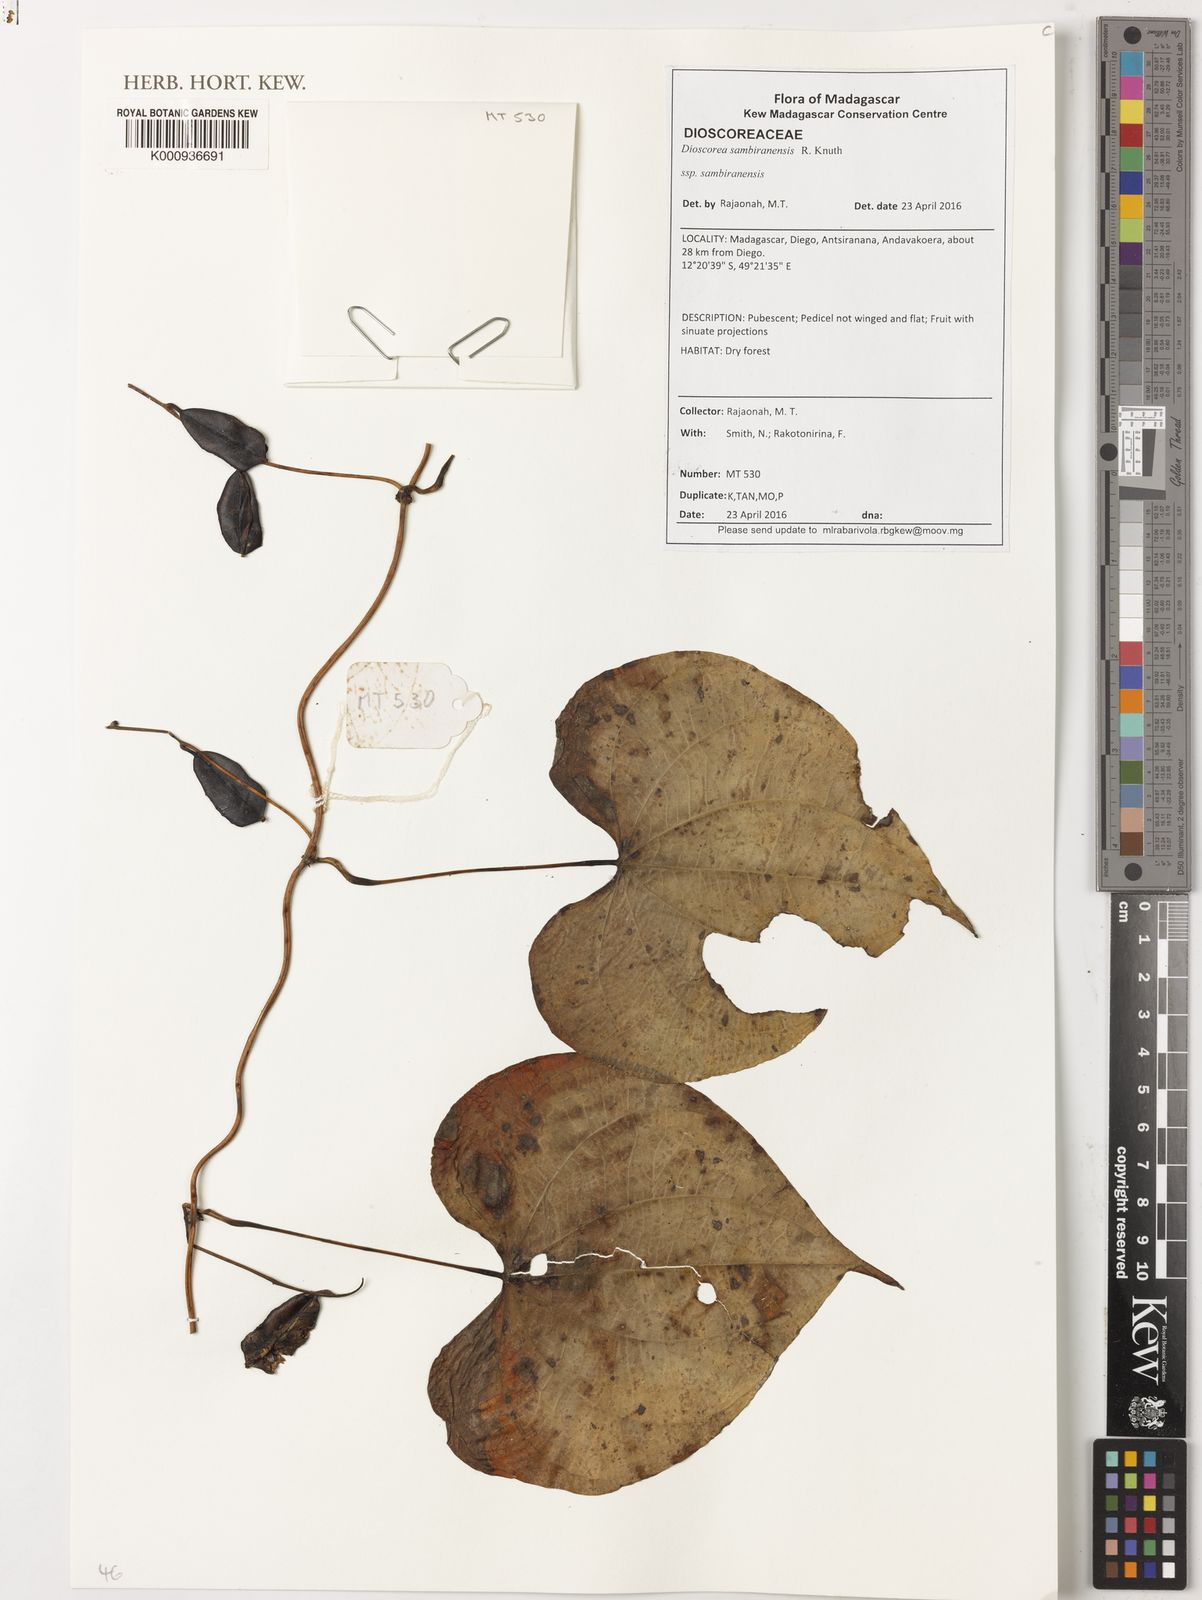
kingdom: Plantae
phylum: Tracheophyta
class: Liliopsida
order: Dioscoreales
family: Dioscoreaceae
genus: Dioscorea
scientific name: Dioscorea sansibarensis
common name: Zanzibar yam
